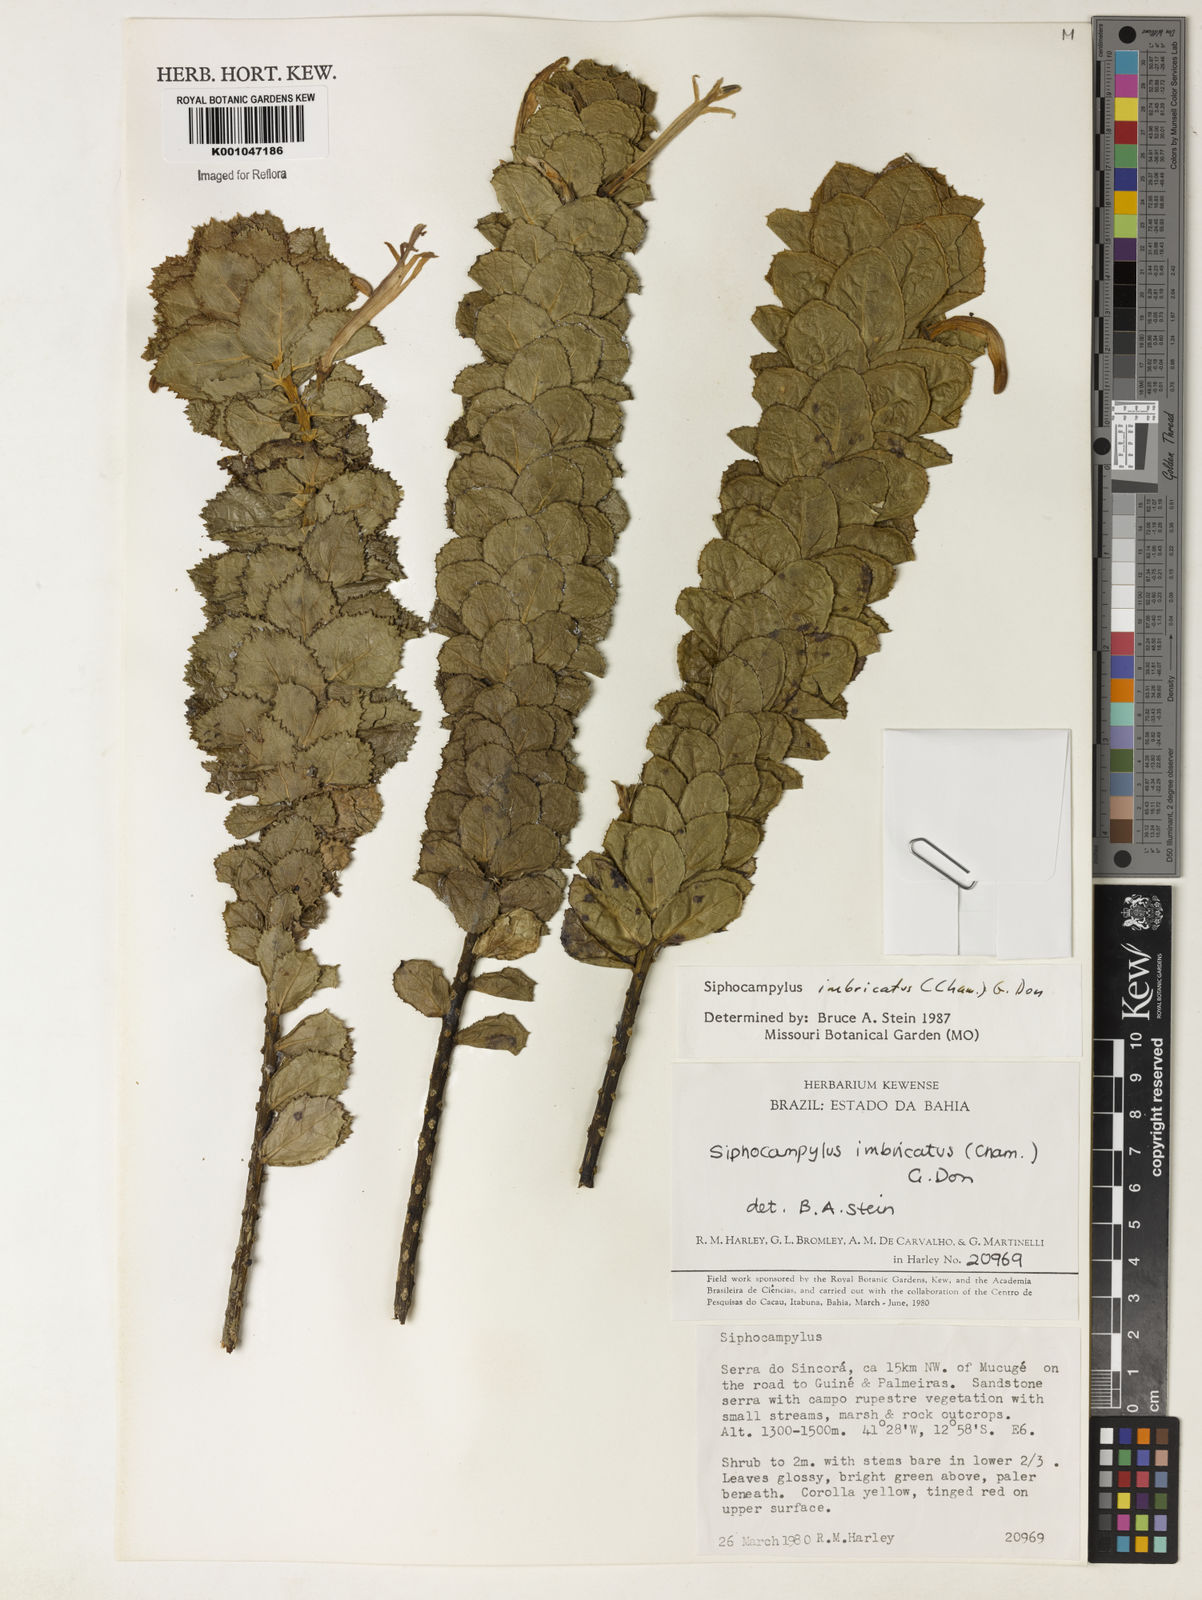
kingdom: Plantae
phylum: Tracheophyta
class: Magnoliopsida
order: Asterales
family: Campanulaceae
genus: Siphocampylus
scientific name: Siphocampylus imbricatus
